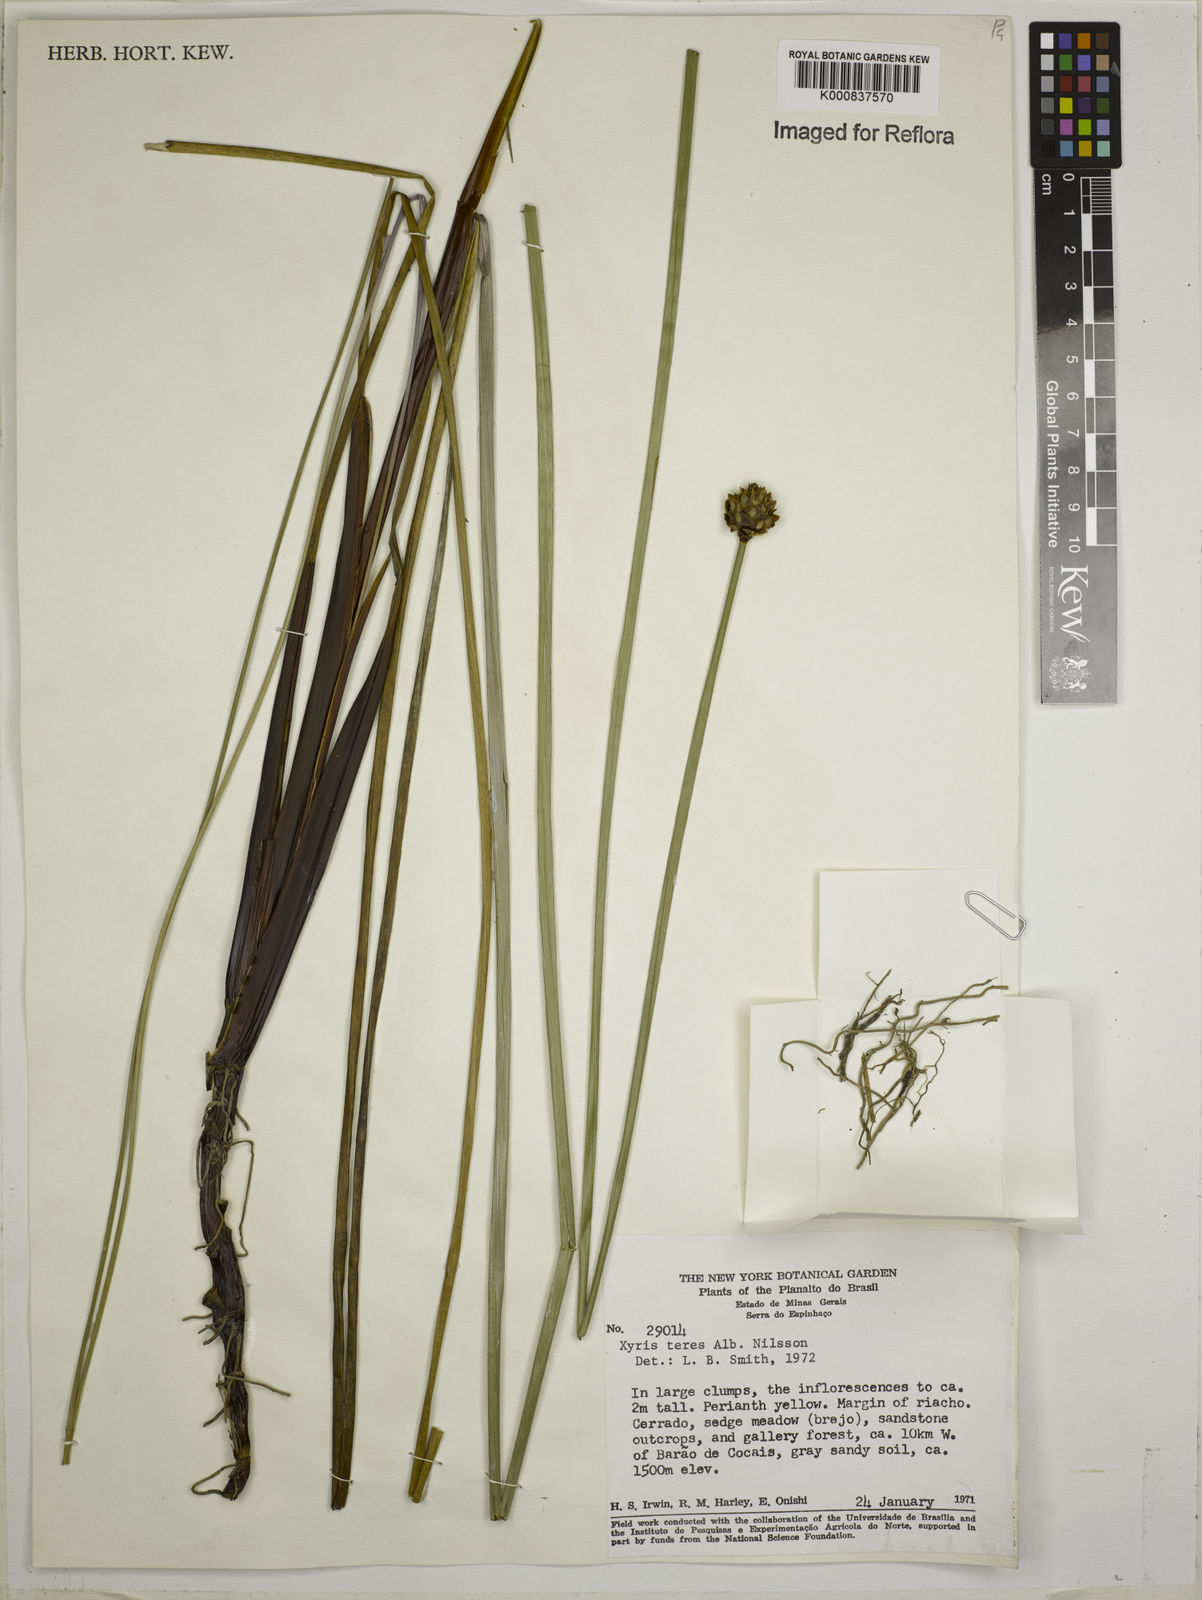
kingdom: Plantae
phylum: Tracheophyta
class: Liliopsida
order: Poales
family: Xyridaceae
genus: Xyris
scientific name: Xyris teres
